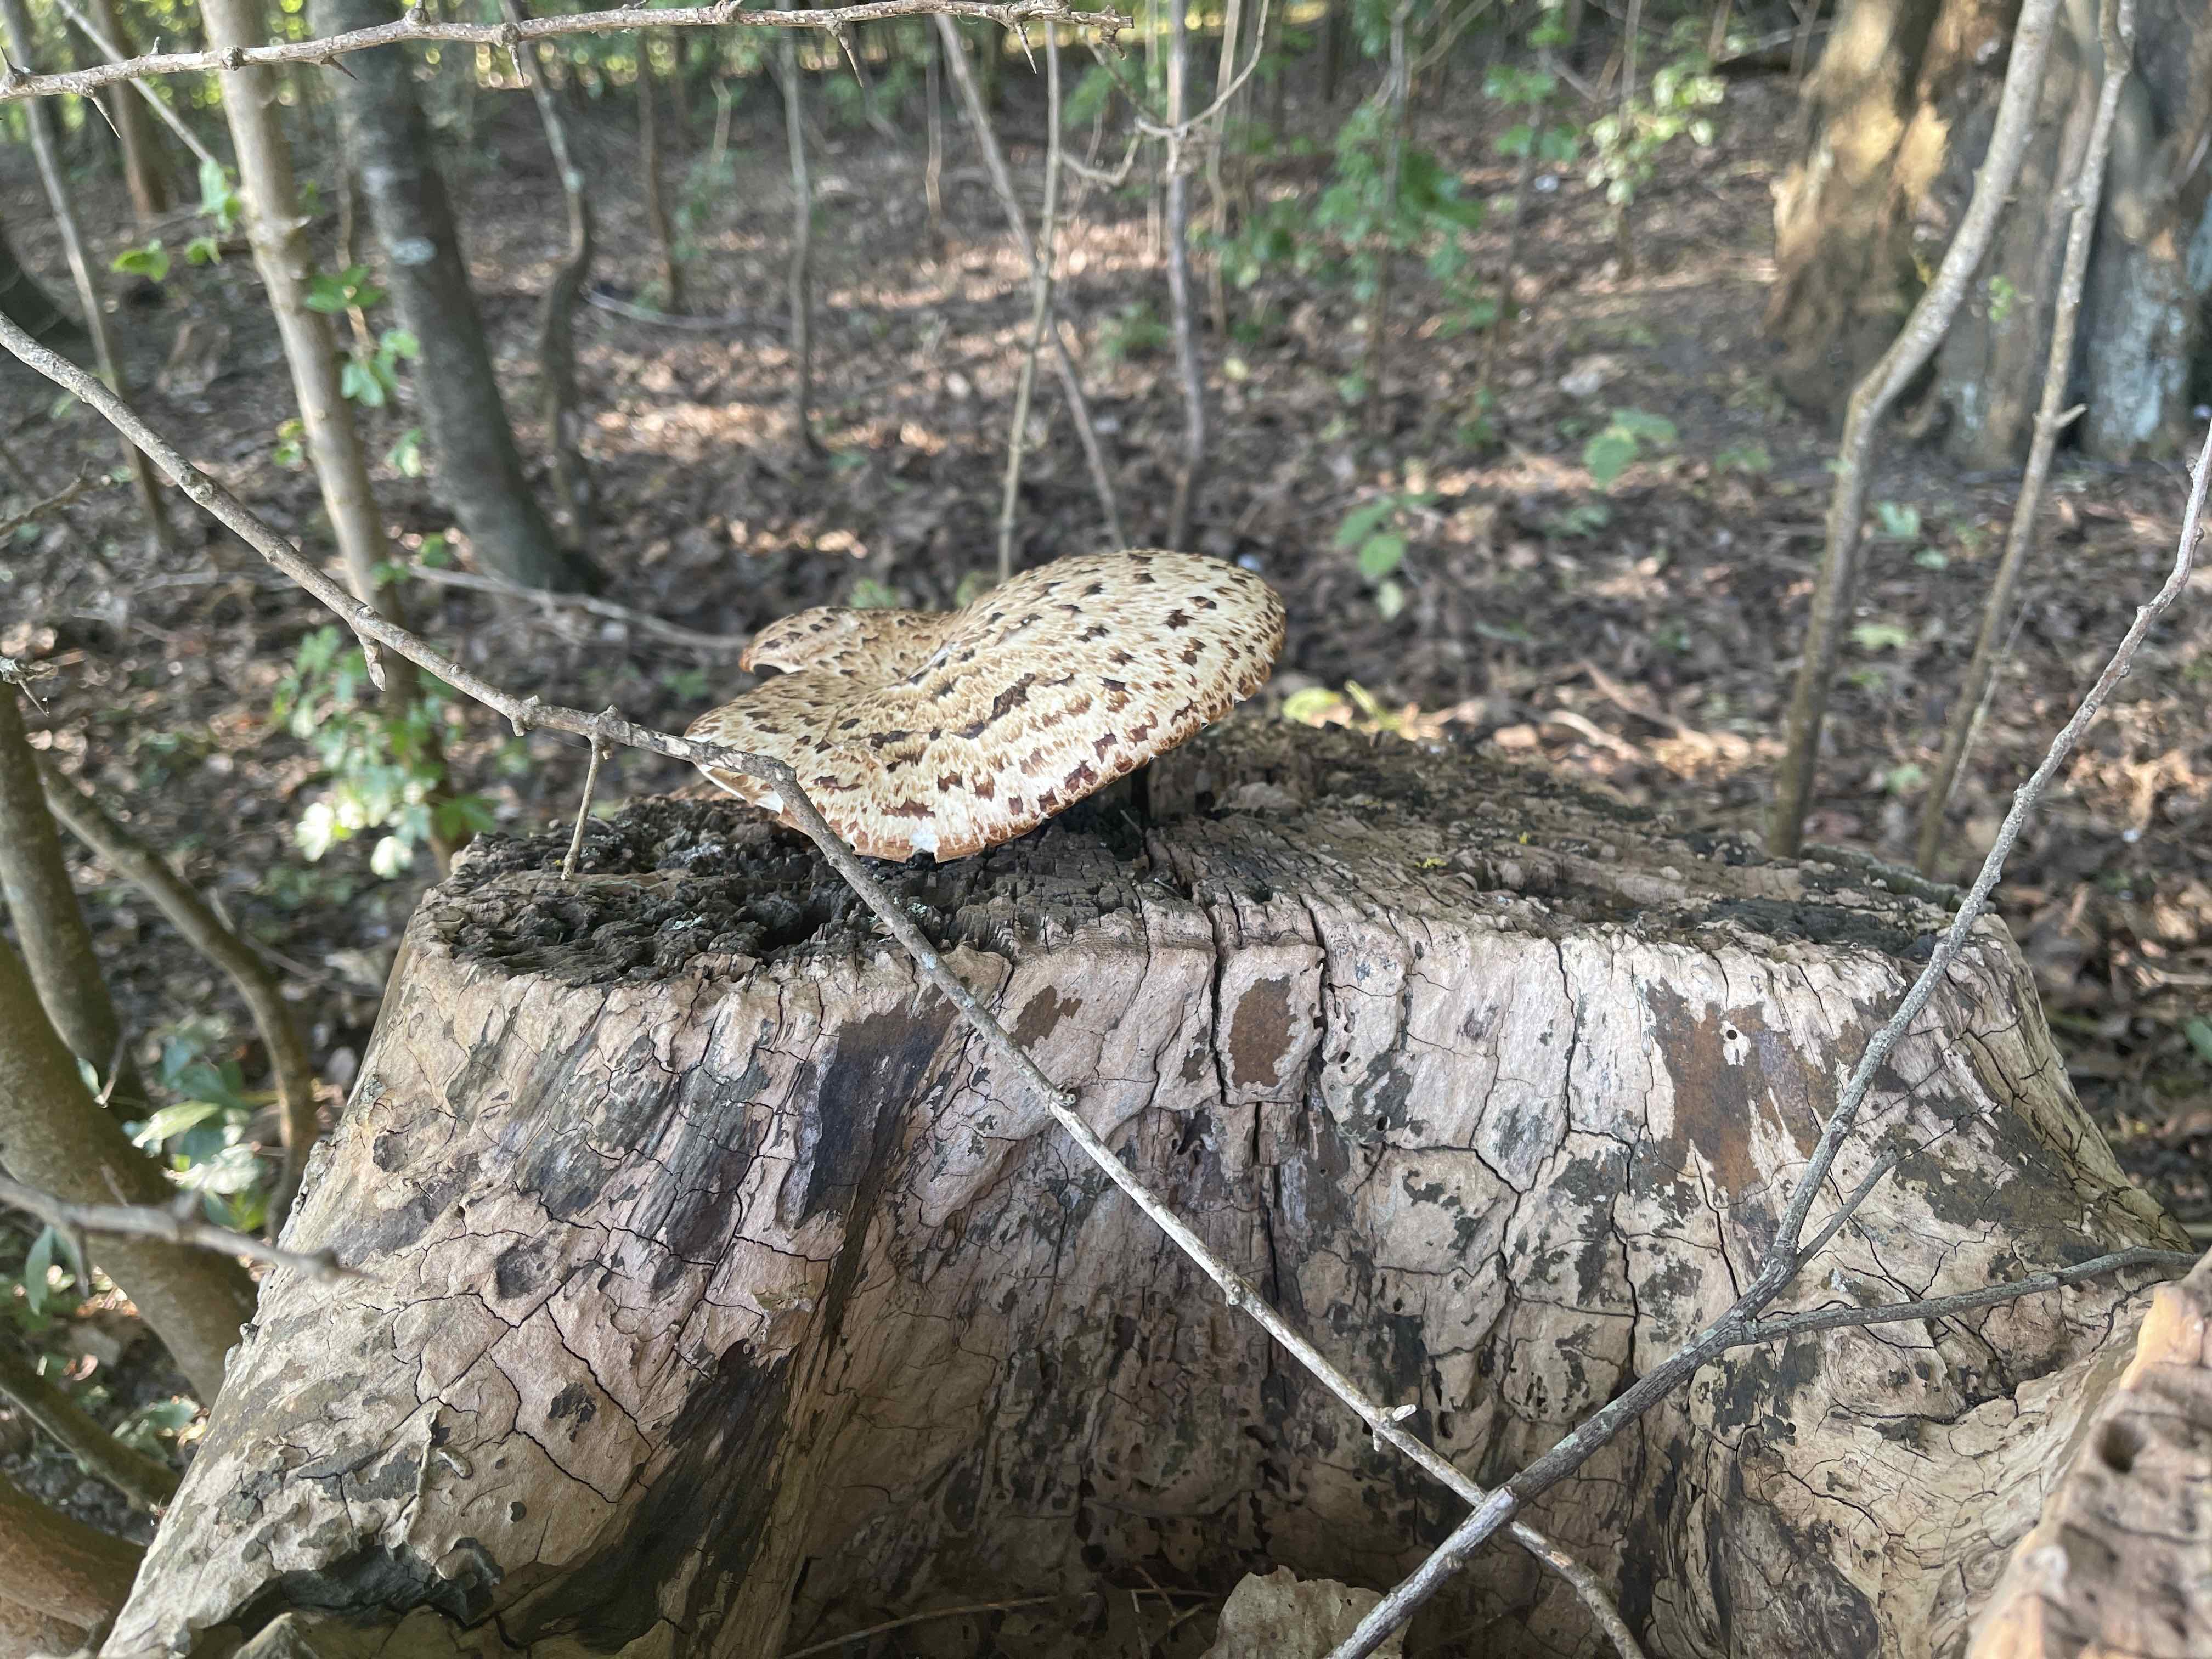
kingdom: Fungi
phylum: Basidiomycota
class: Agaricomycetes
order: Polyporales
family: Polyporaceae
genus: Cerioporus
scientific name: Cerioporus squamosus
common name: skællet stilkporesvamp
